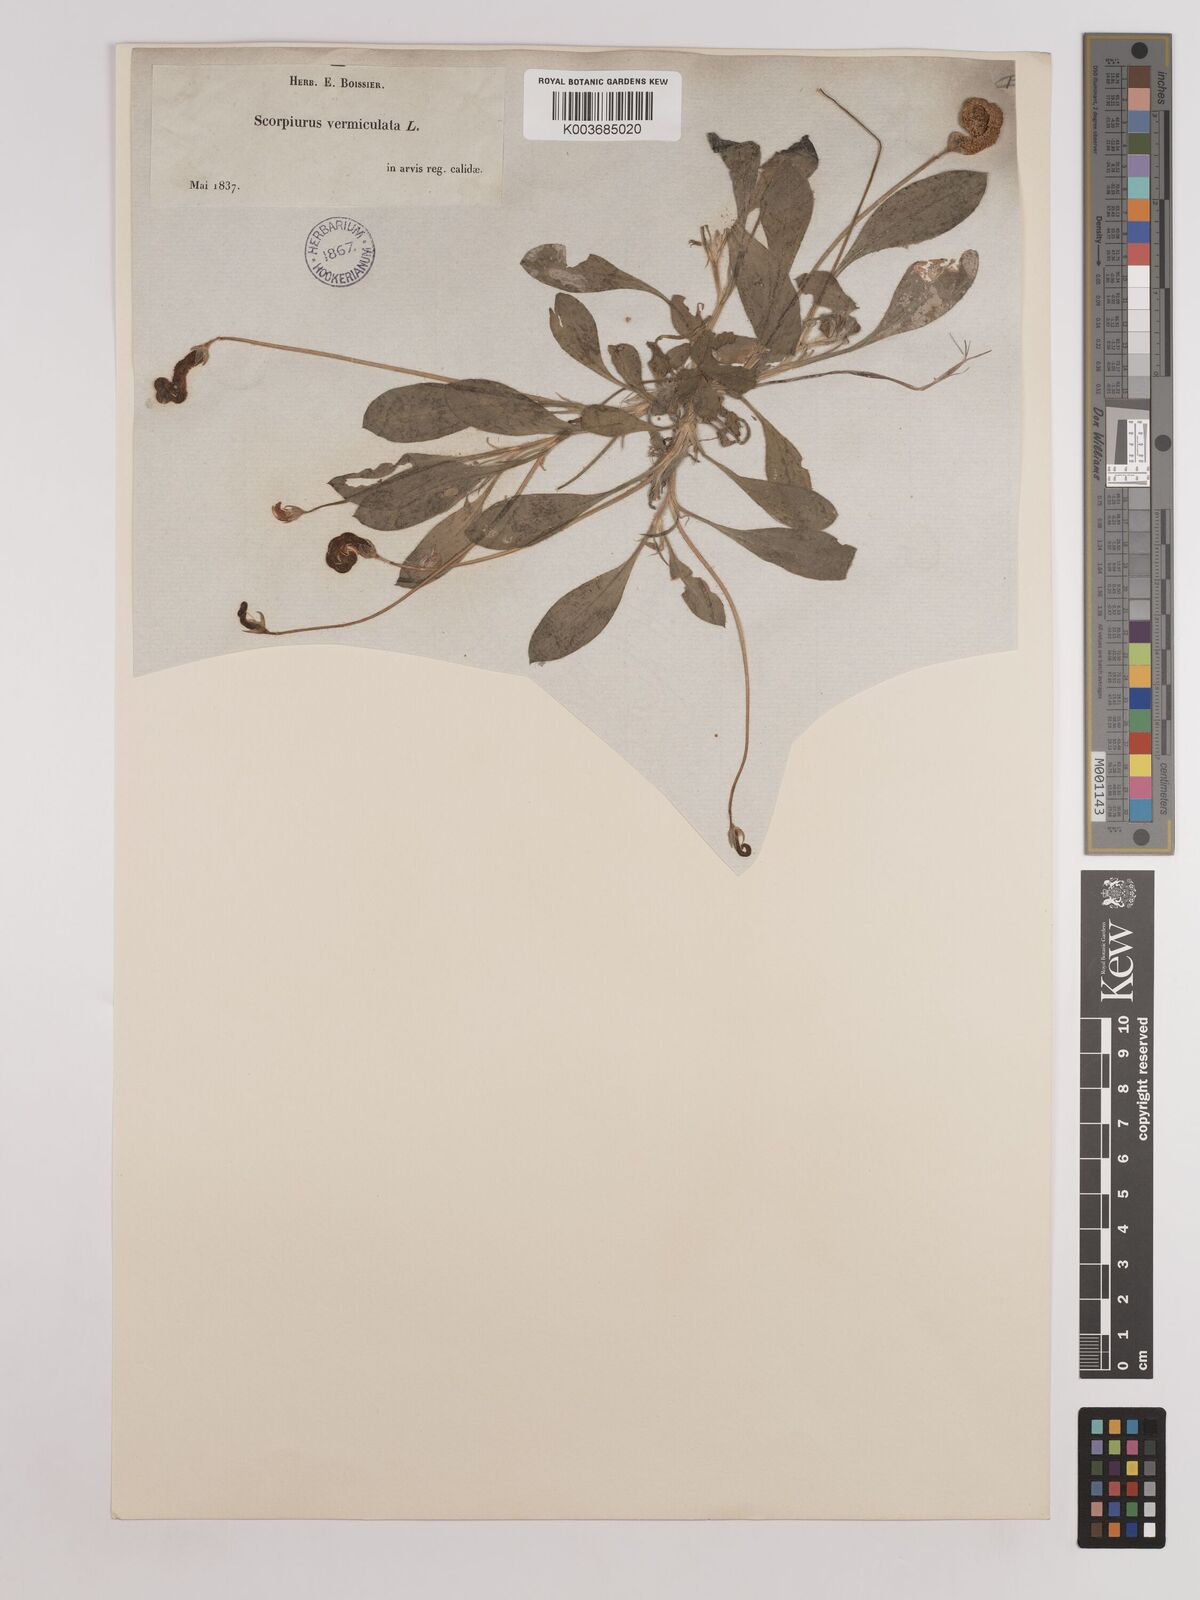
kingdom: Plantae
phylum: Tracheophyta
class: Magnoliopsida
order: Fabales
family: Fabaceae
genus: Scorpiurus
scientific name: Scorpiurus vermiculatus
